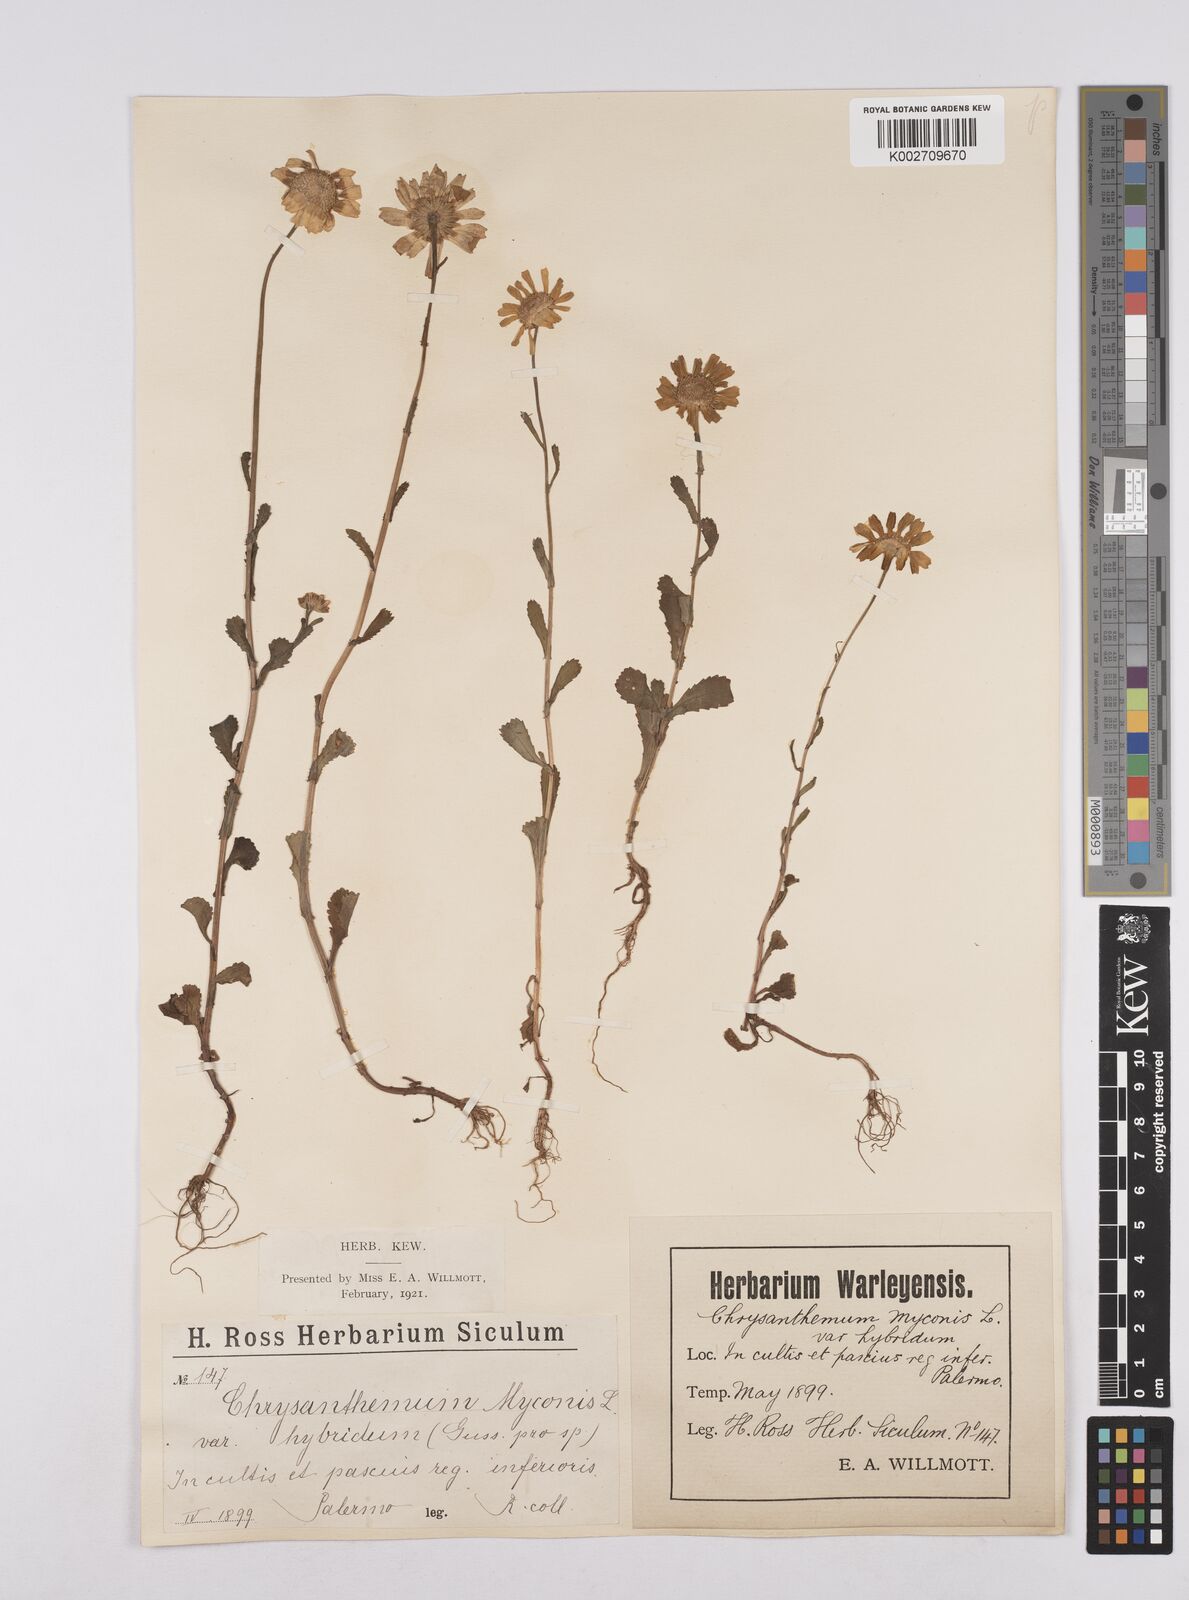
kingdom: Plantae
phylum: Tracheophyta
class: Magnoliopsida
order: Asterales
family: Asteraceae
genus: Coleostephus
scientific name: Coleostephus paludosus
